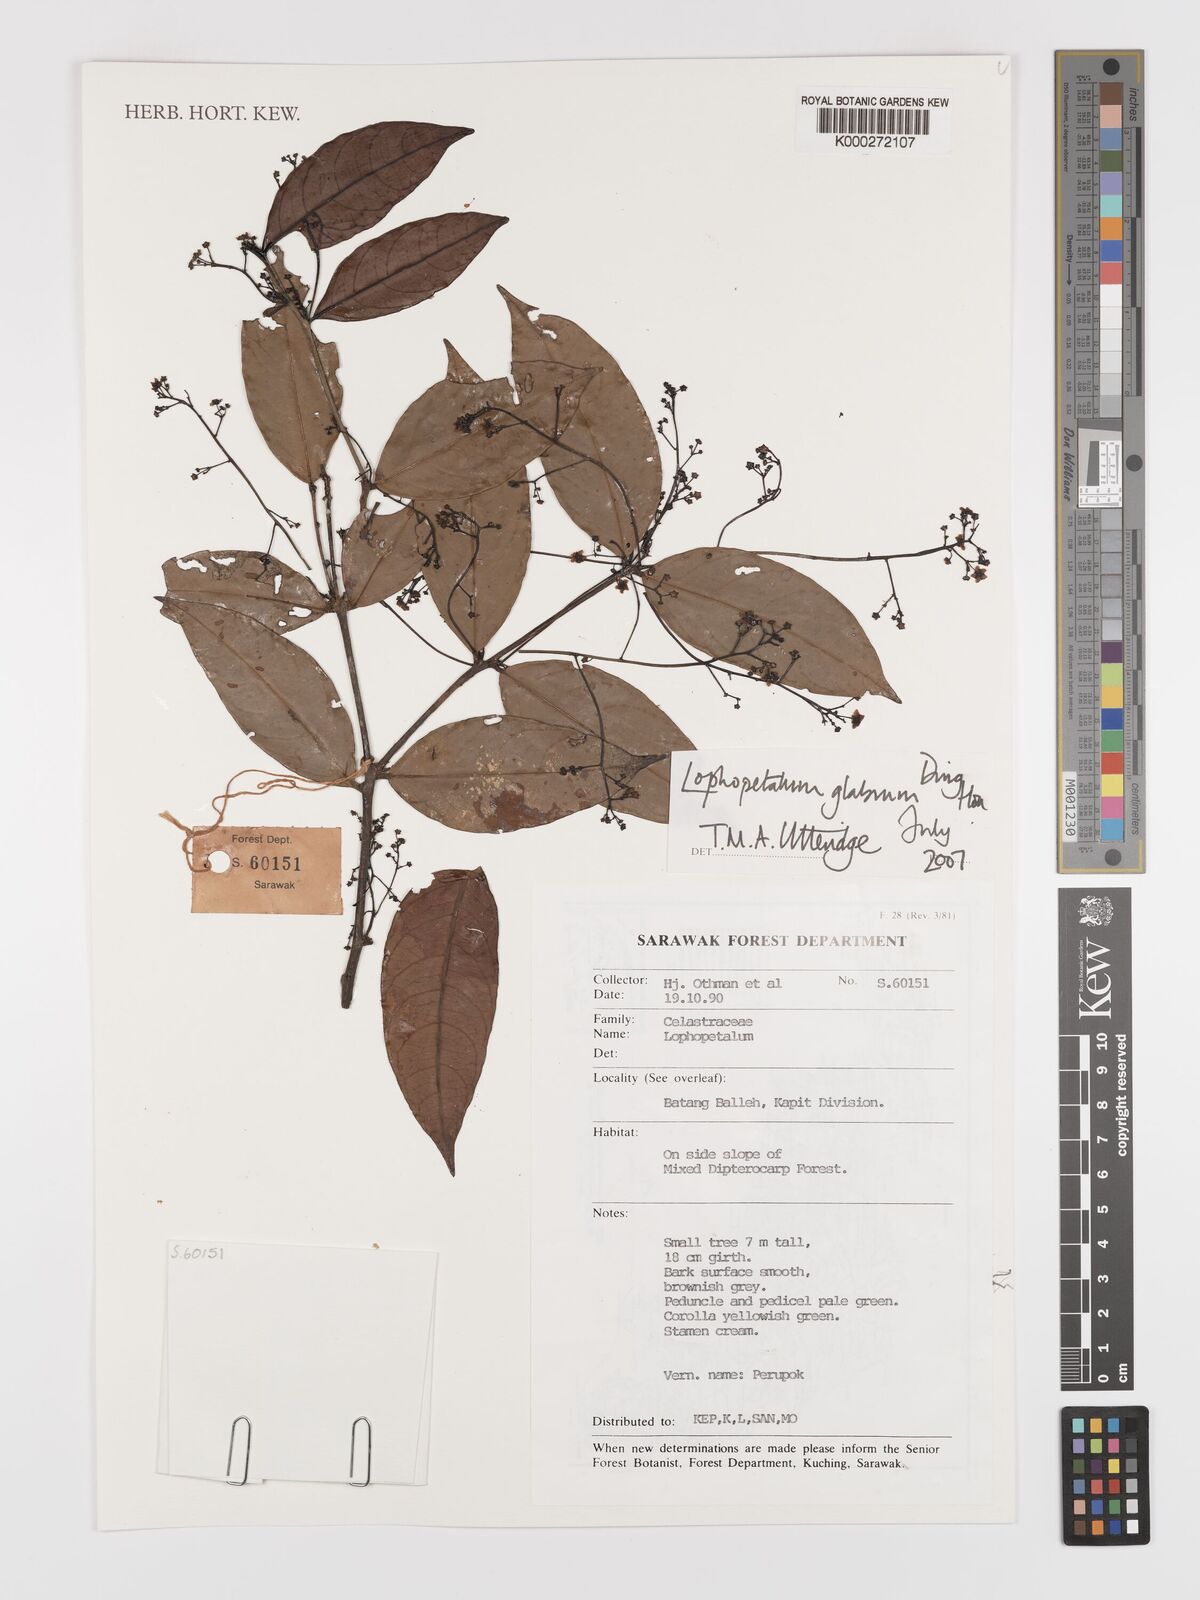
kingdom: Plantae
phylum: Tracheophyta
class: Magnoliopsida
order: Celastrales
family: Celastraceae
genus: Lophopetalum
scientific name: Lophopetalum glabrum
